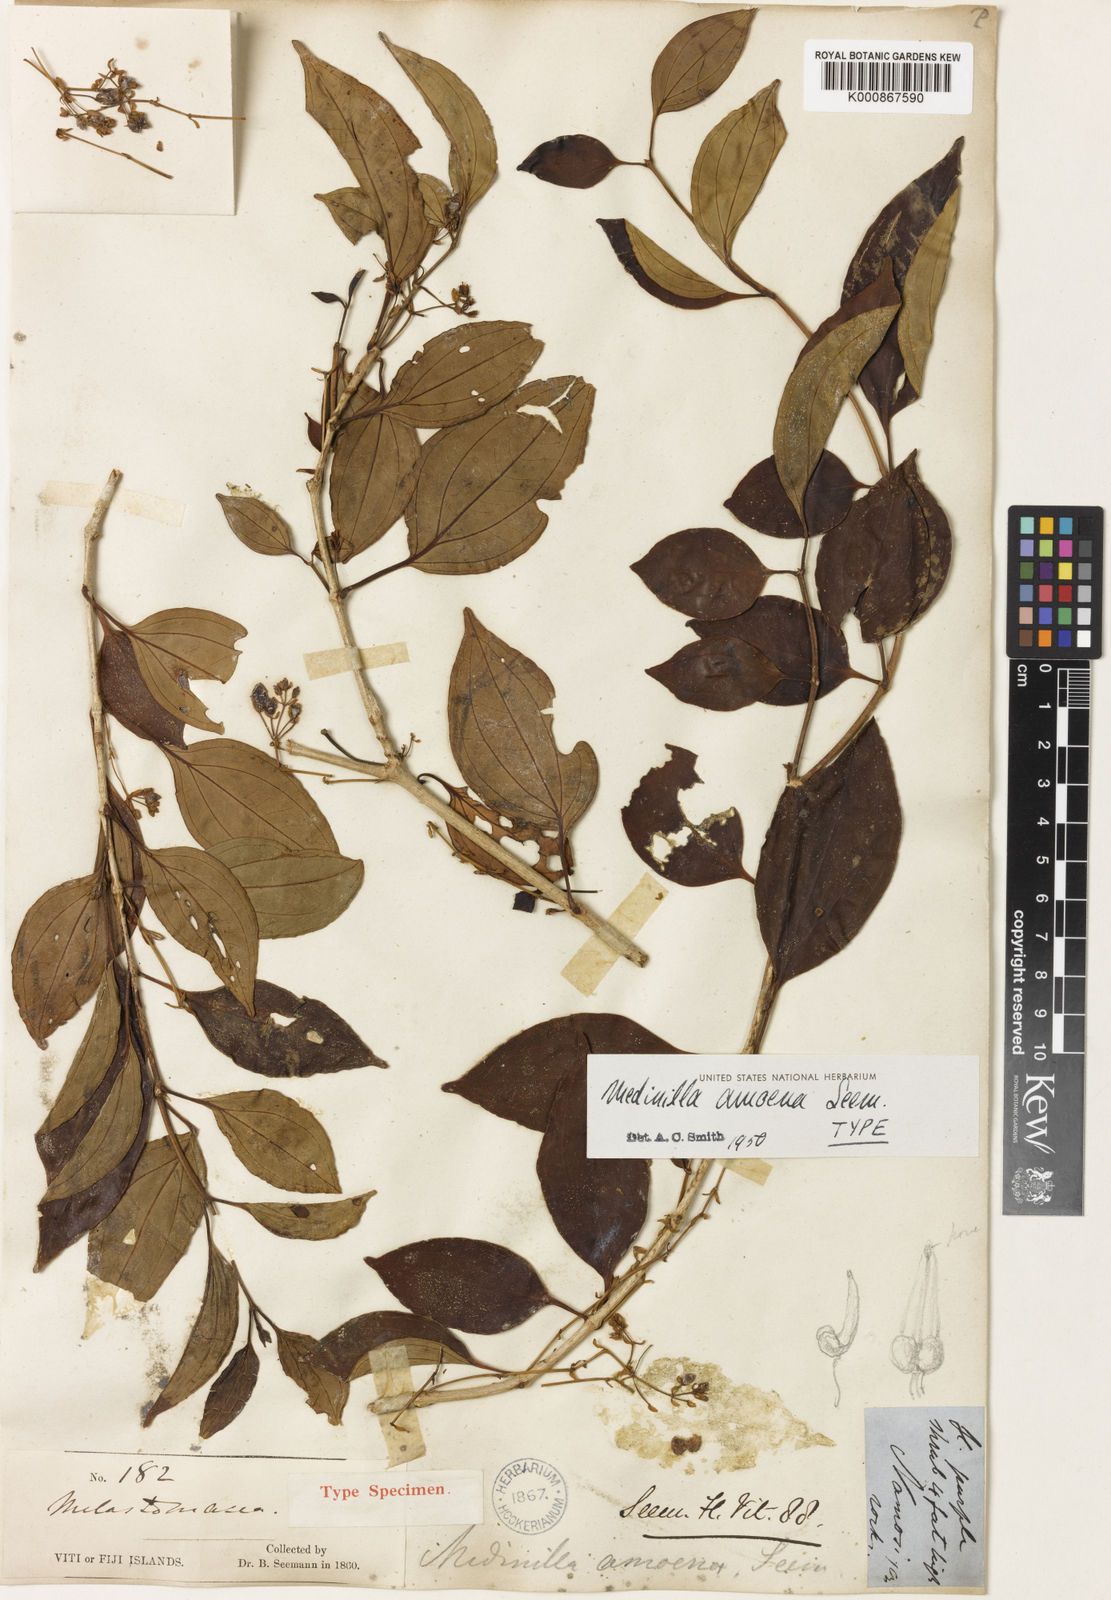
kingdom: Plantae
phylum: Tracheophyta
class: Magnoliopsida
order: Myrtales
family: Melastomataceae
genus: Medinilla
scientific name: Medinilla ovalifolia
